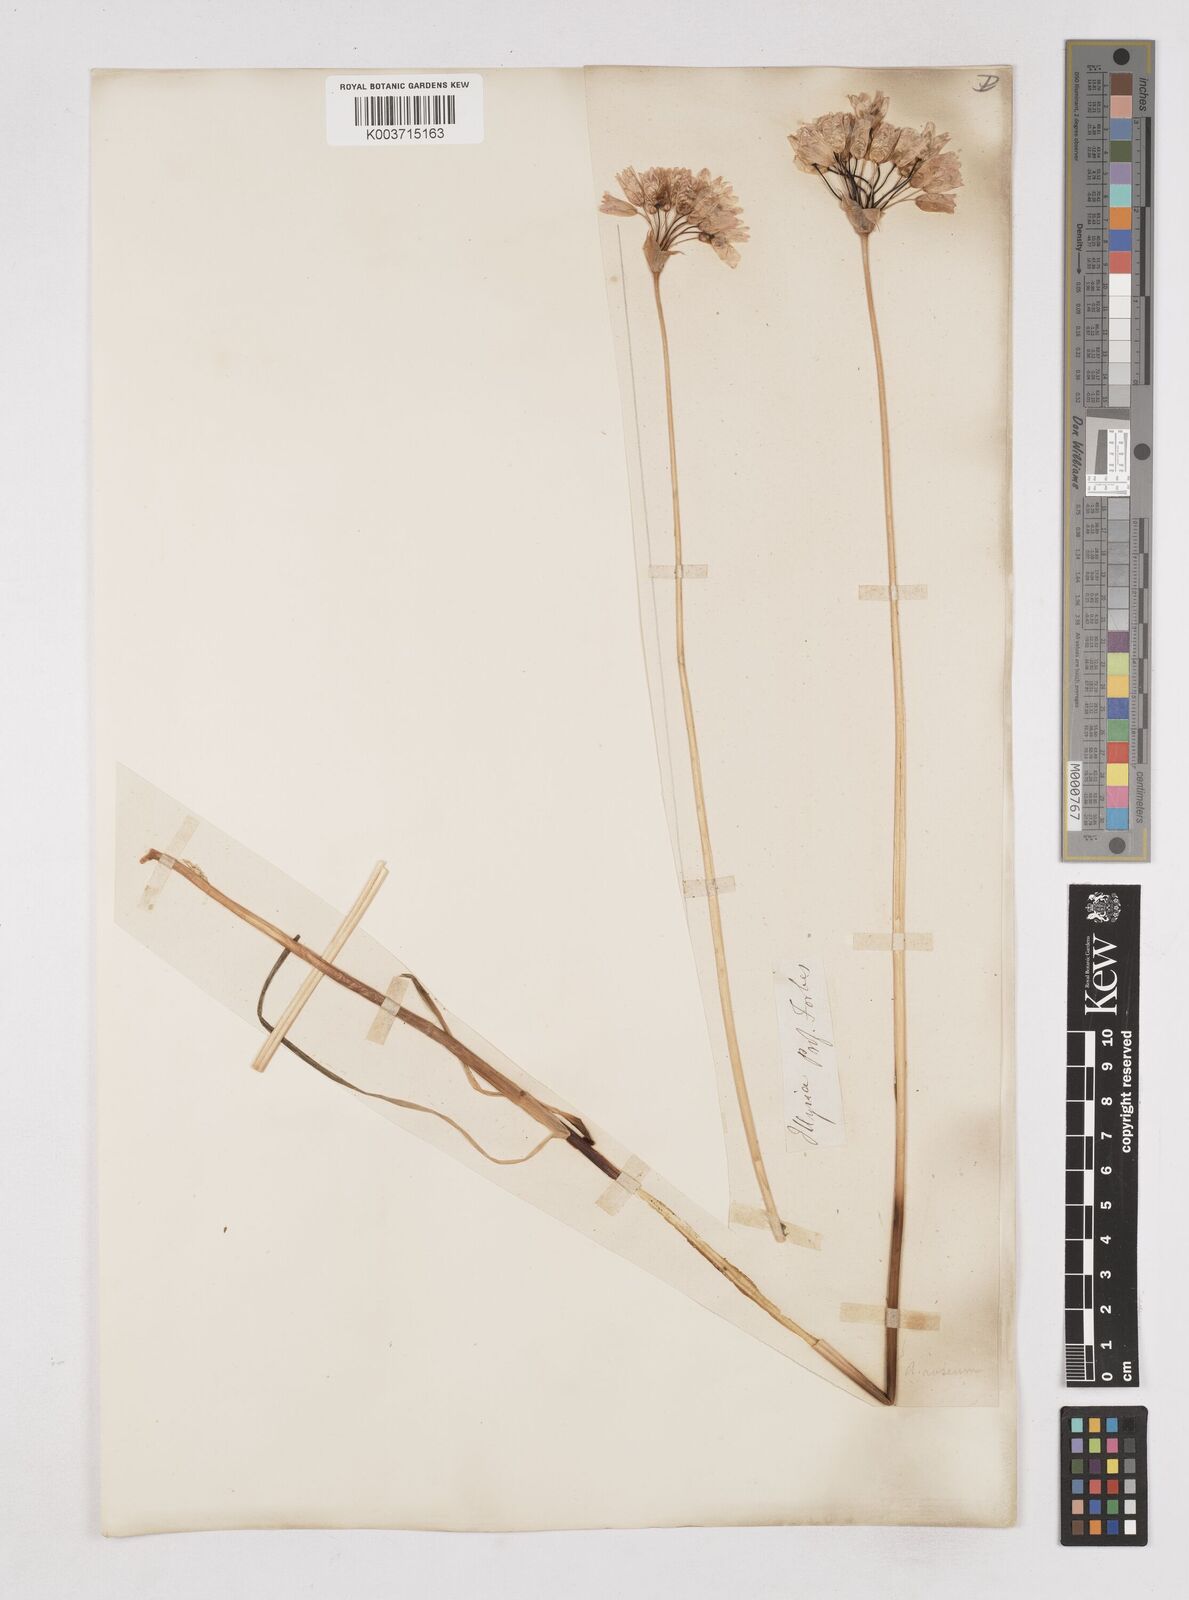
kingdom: Plantae
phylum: Tracheophyta
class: Liliopsida
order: Asparagales
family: Amaryllidaceae
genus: Allium
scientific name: Allium roseum
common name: Rosy garlic
